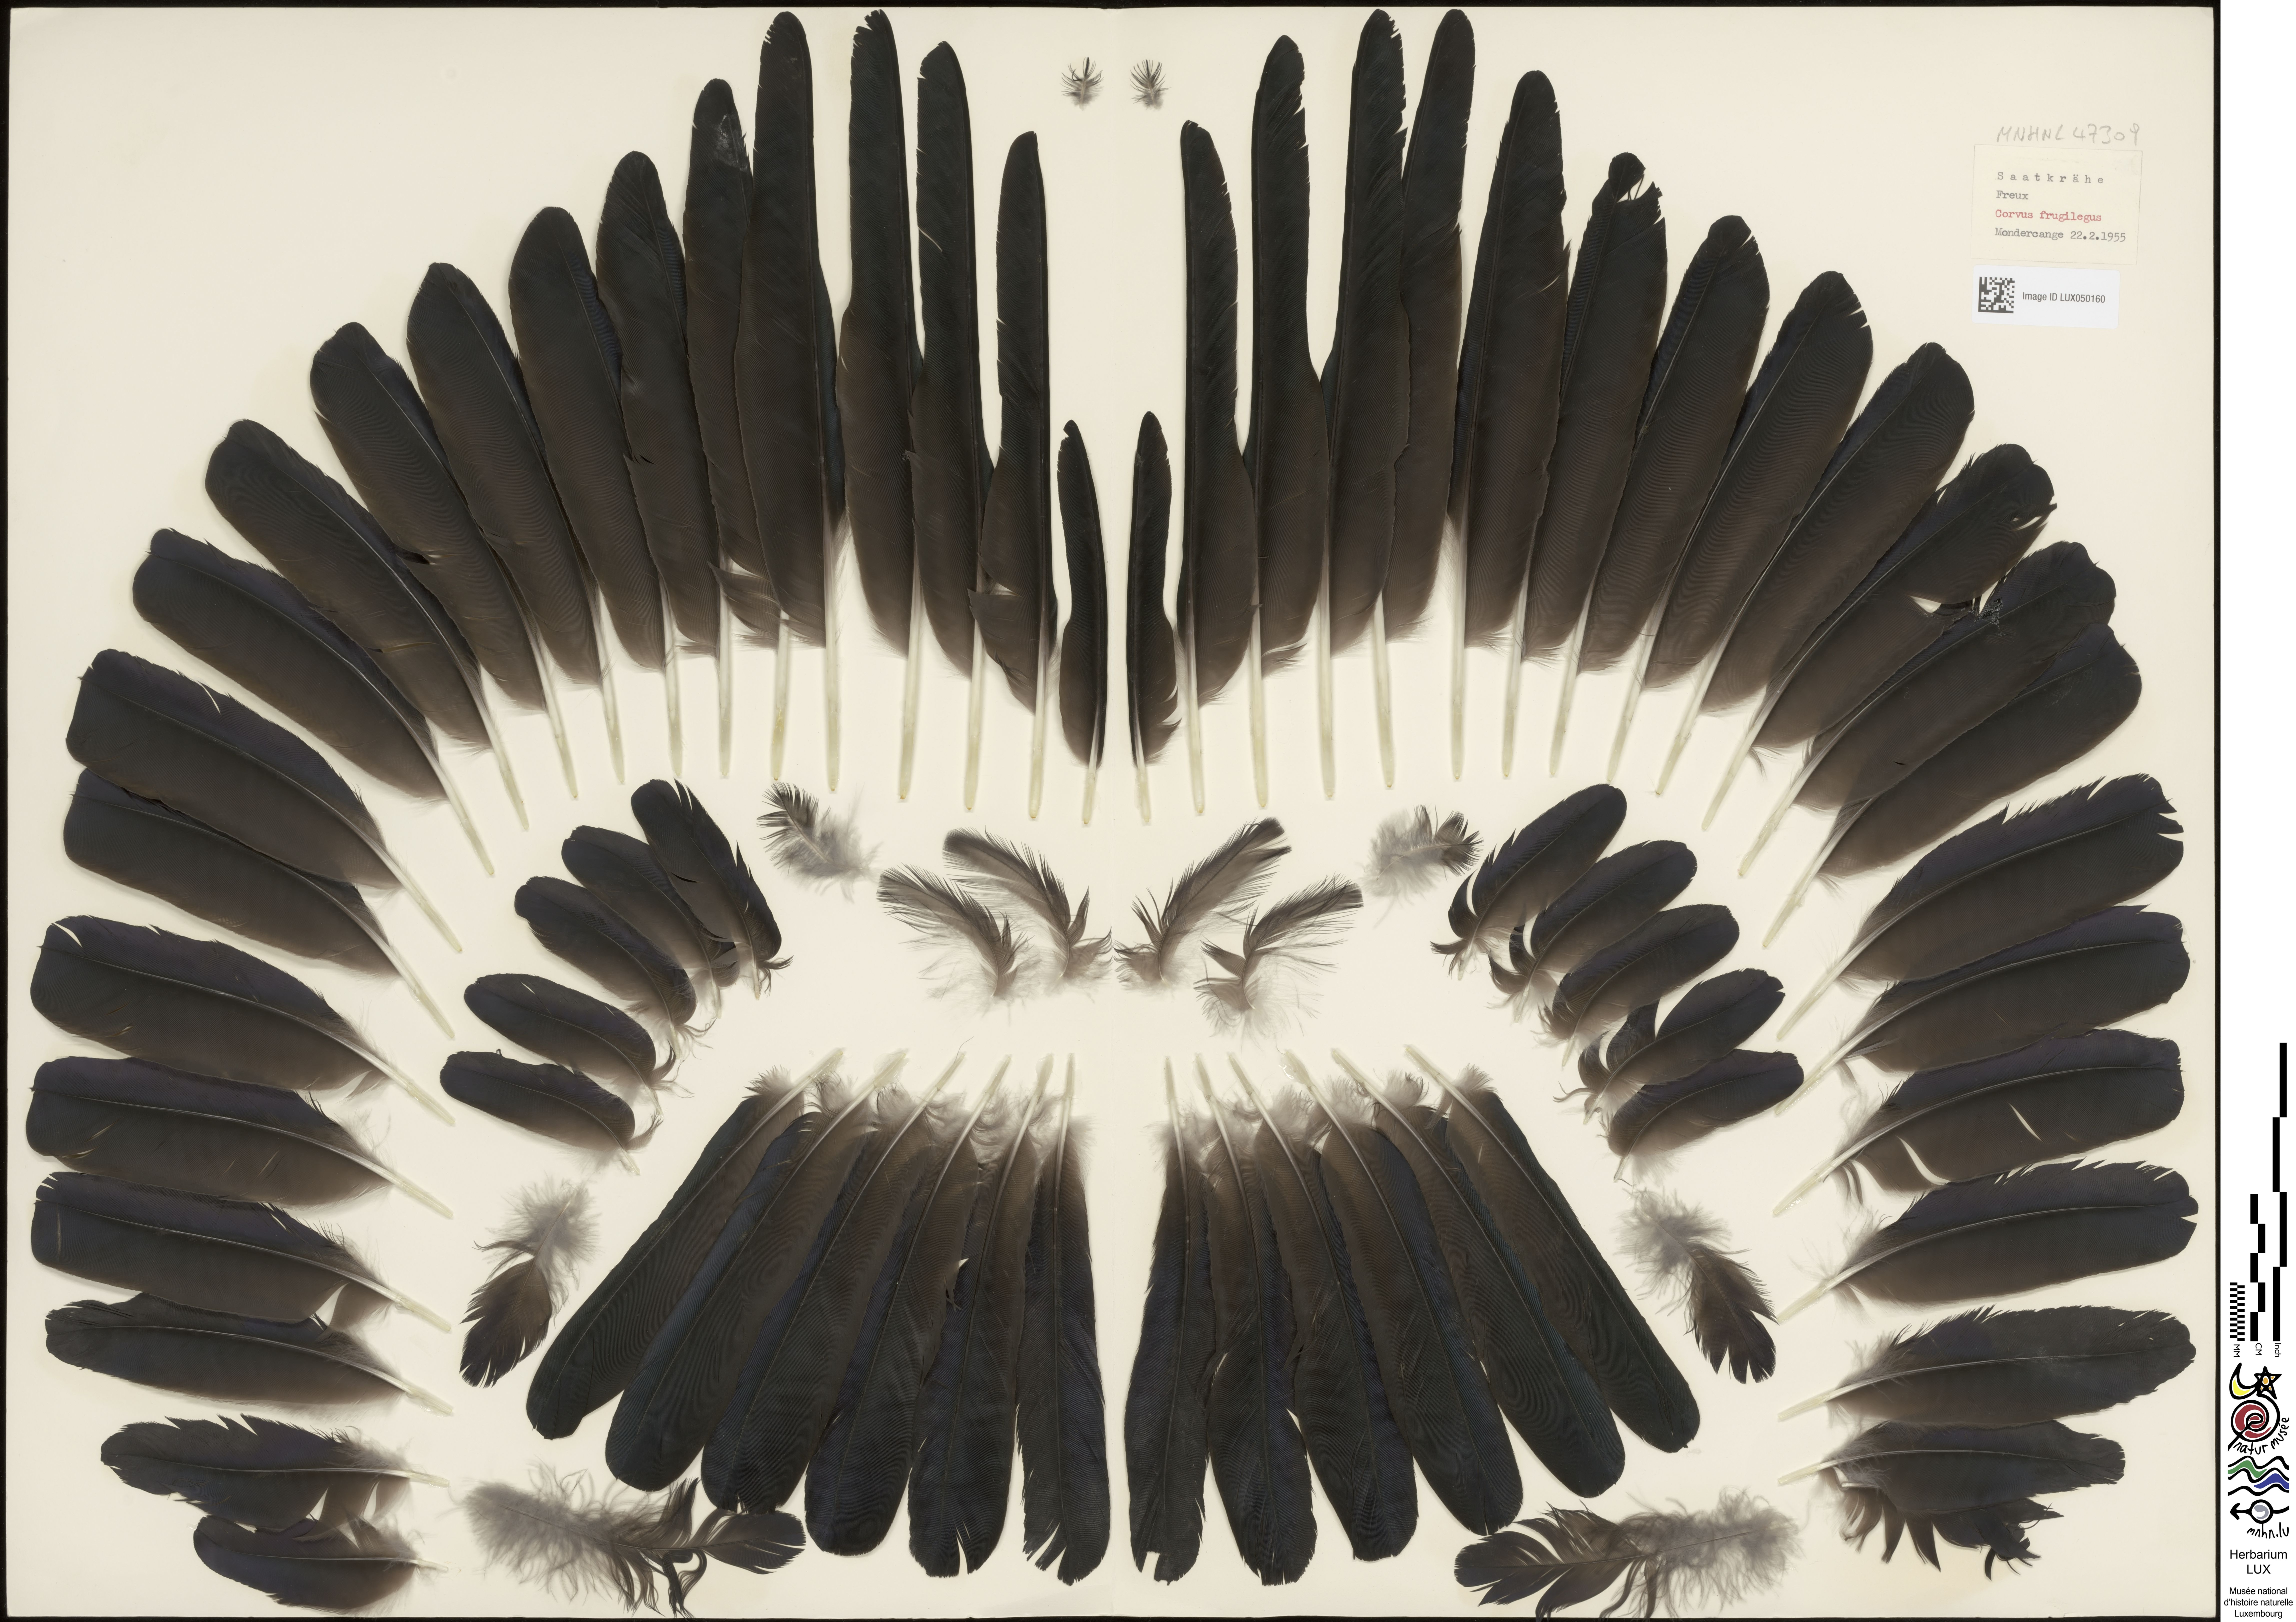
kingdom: Animalia
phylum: Chordata
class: Aves
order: Passeriformes
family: Corvidae
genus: Corvus
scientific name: Corvus frugilegus
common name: Rook
